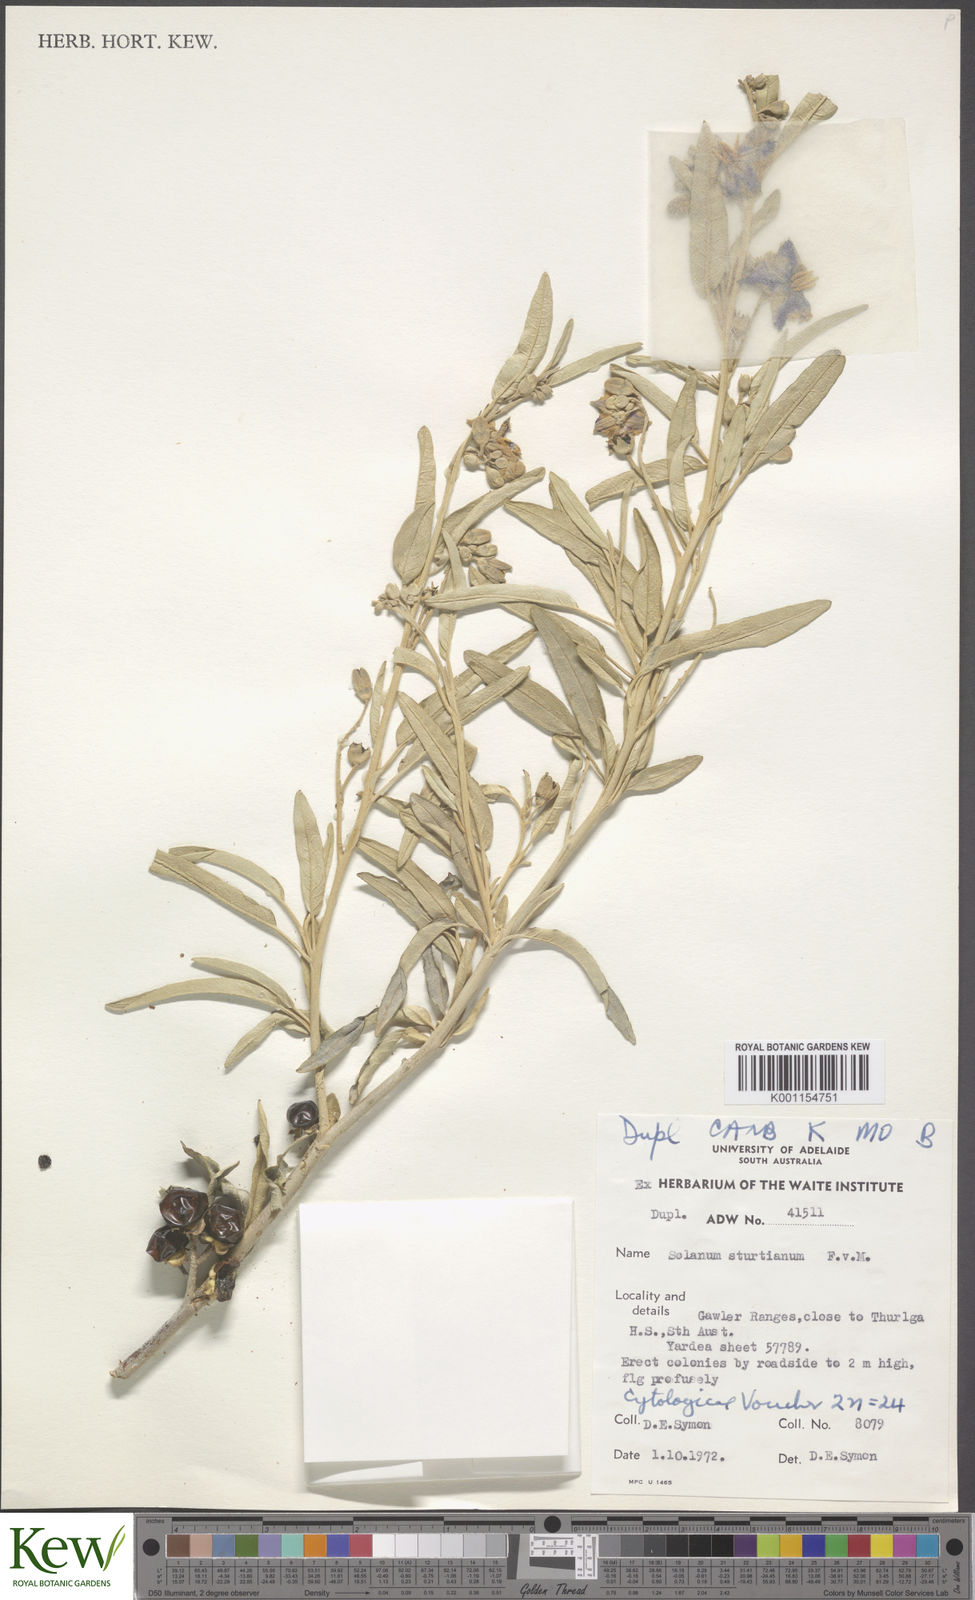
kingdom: Plantae
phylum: Tracheophyta
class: Magnoliopsida
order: Solanales
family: Solanaceae
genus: Solanum
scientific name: Solanum sturtianum
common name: Thargomindah nightshade
